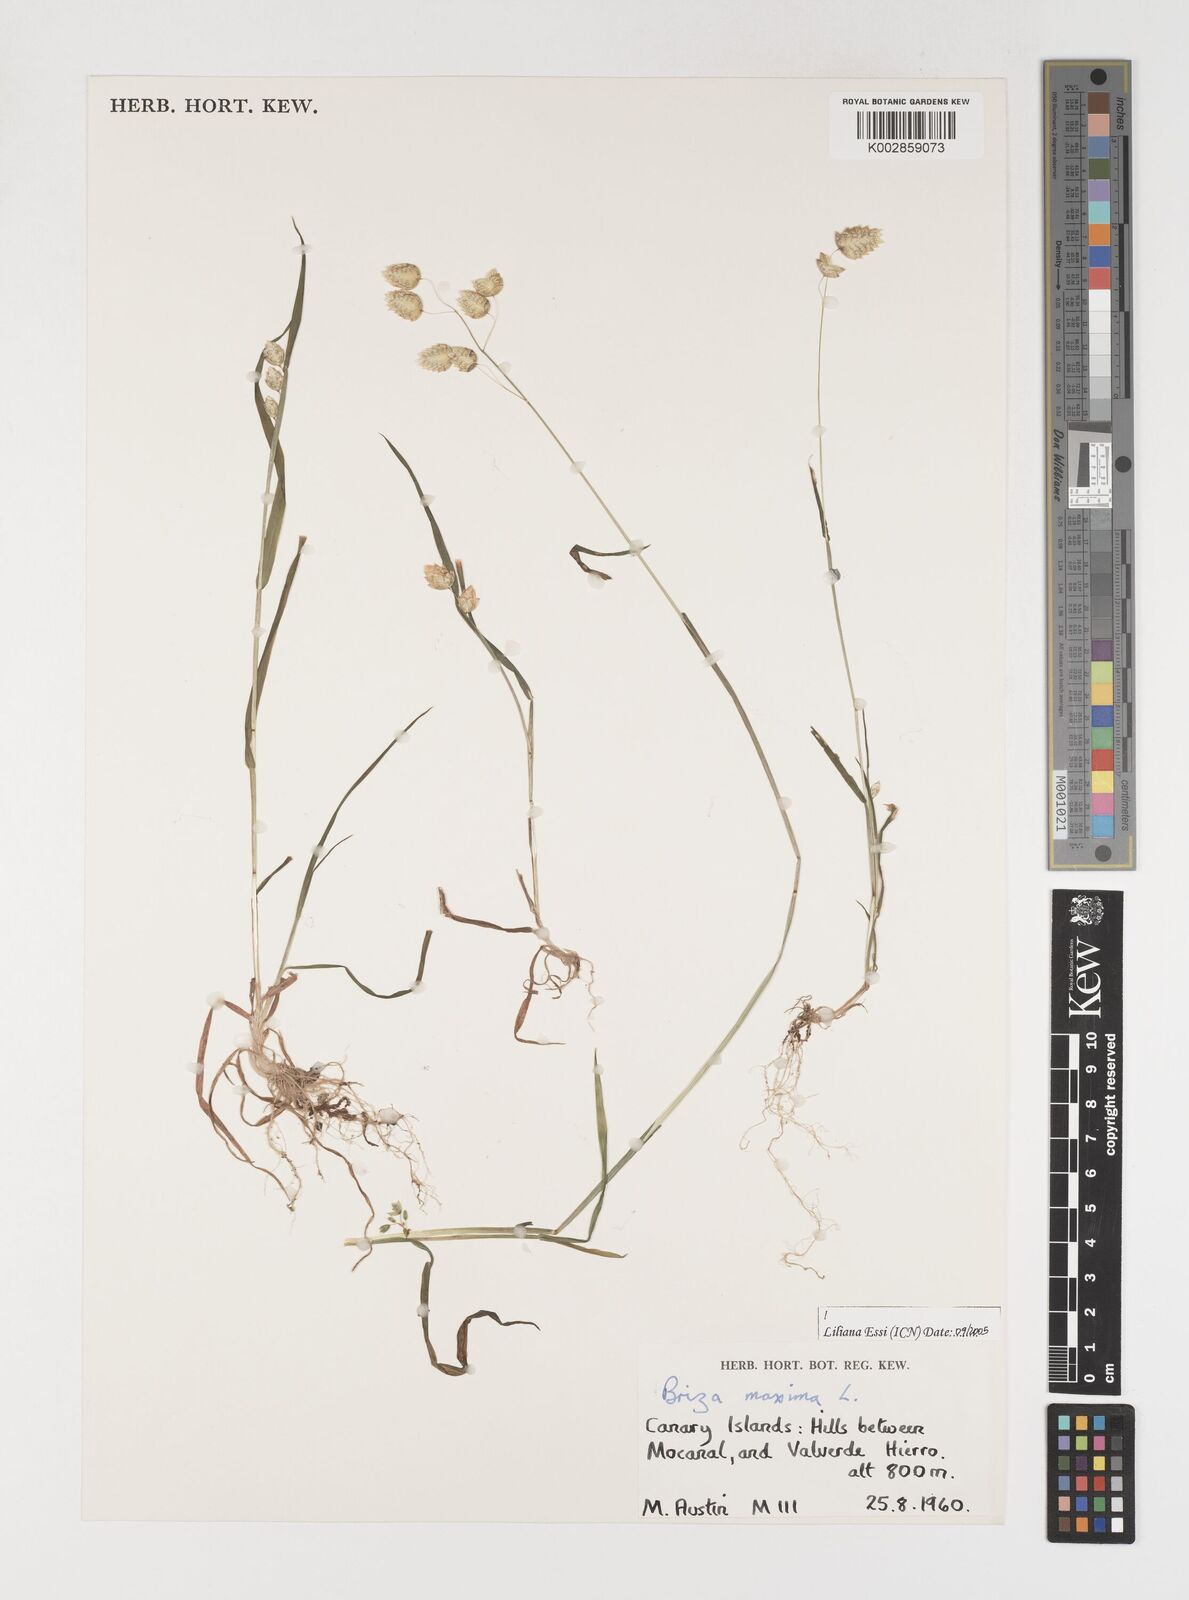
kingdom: Plantae
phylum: Tracheophyta
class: Liliopsida
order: Poales
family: Poaceae
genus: Briza
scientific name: Briza maxima
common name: Big quakinggrass
